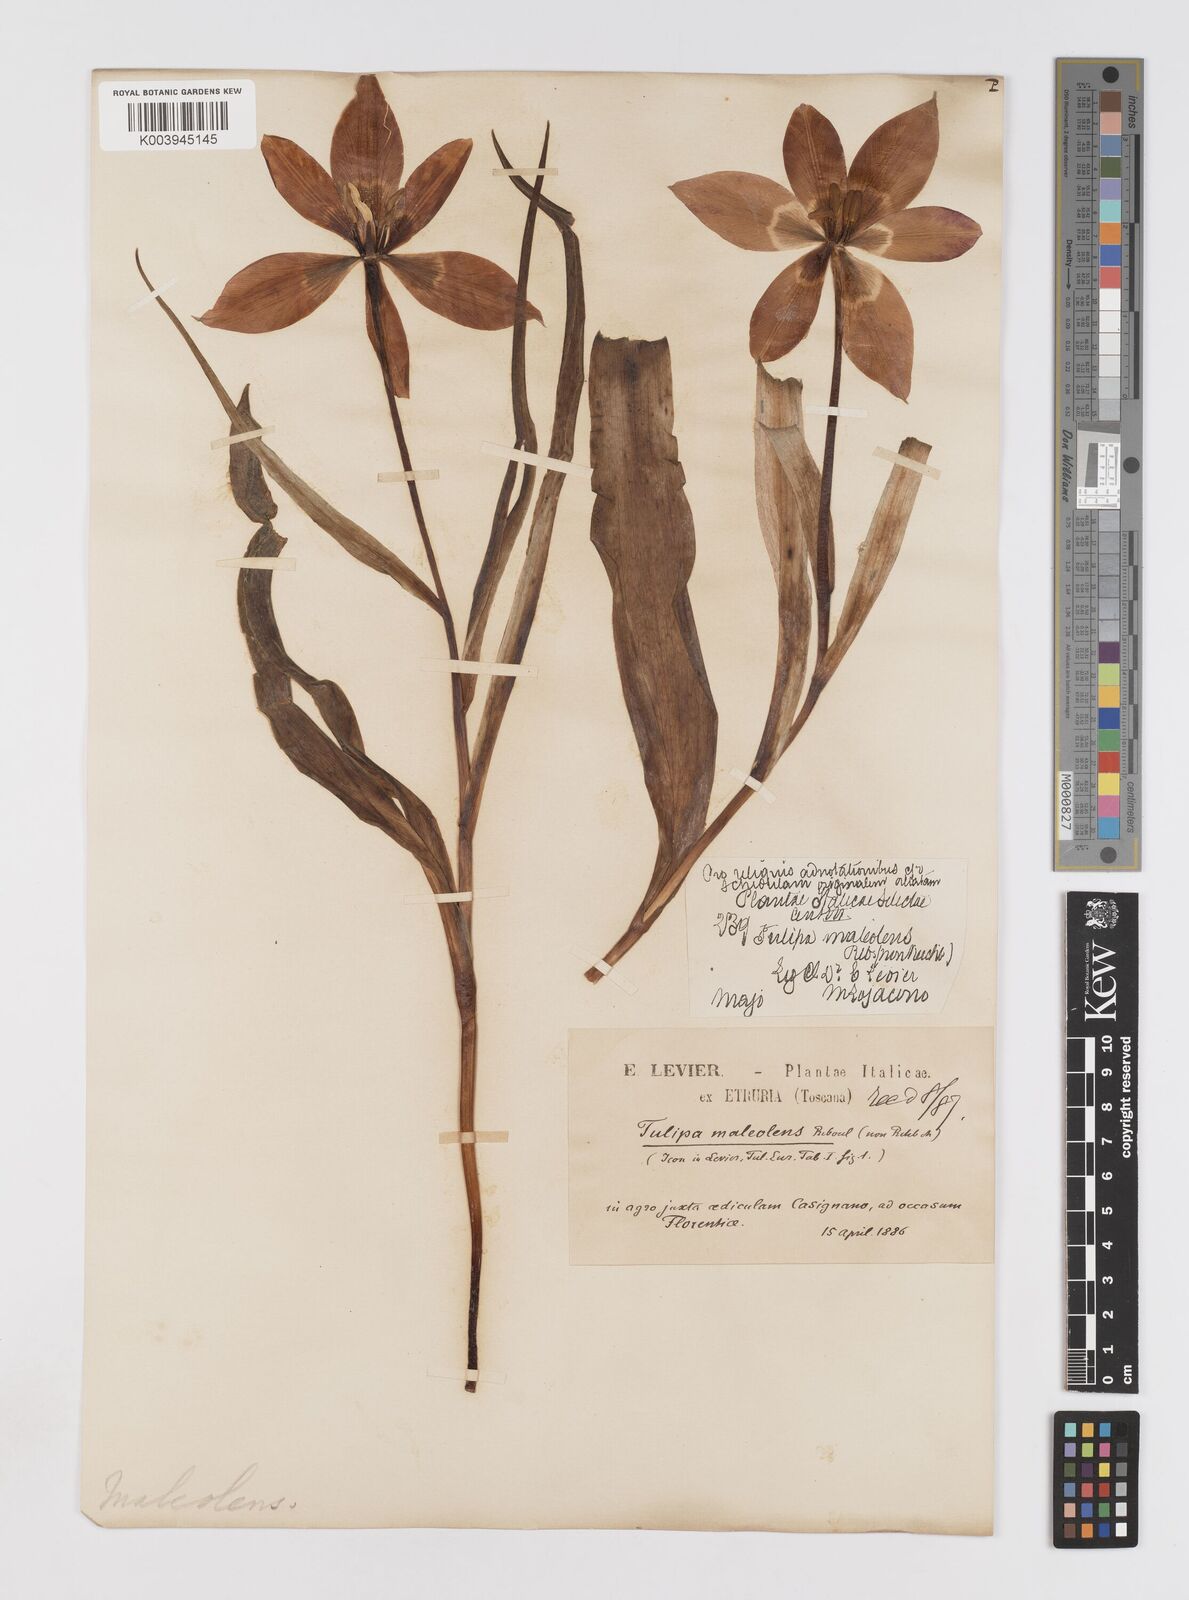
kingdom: Plantae
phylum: Tracheophyta
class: Liliopsida
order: Liliales
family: Liliaceae
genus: Tulipa
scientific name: Tulipa agenensis
